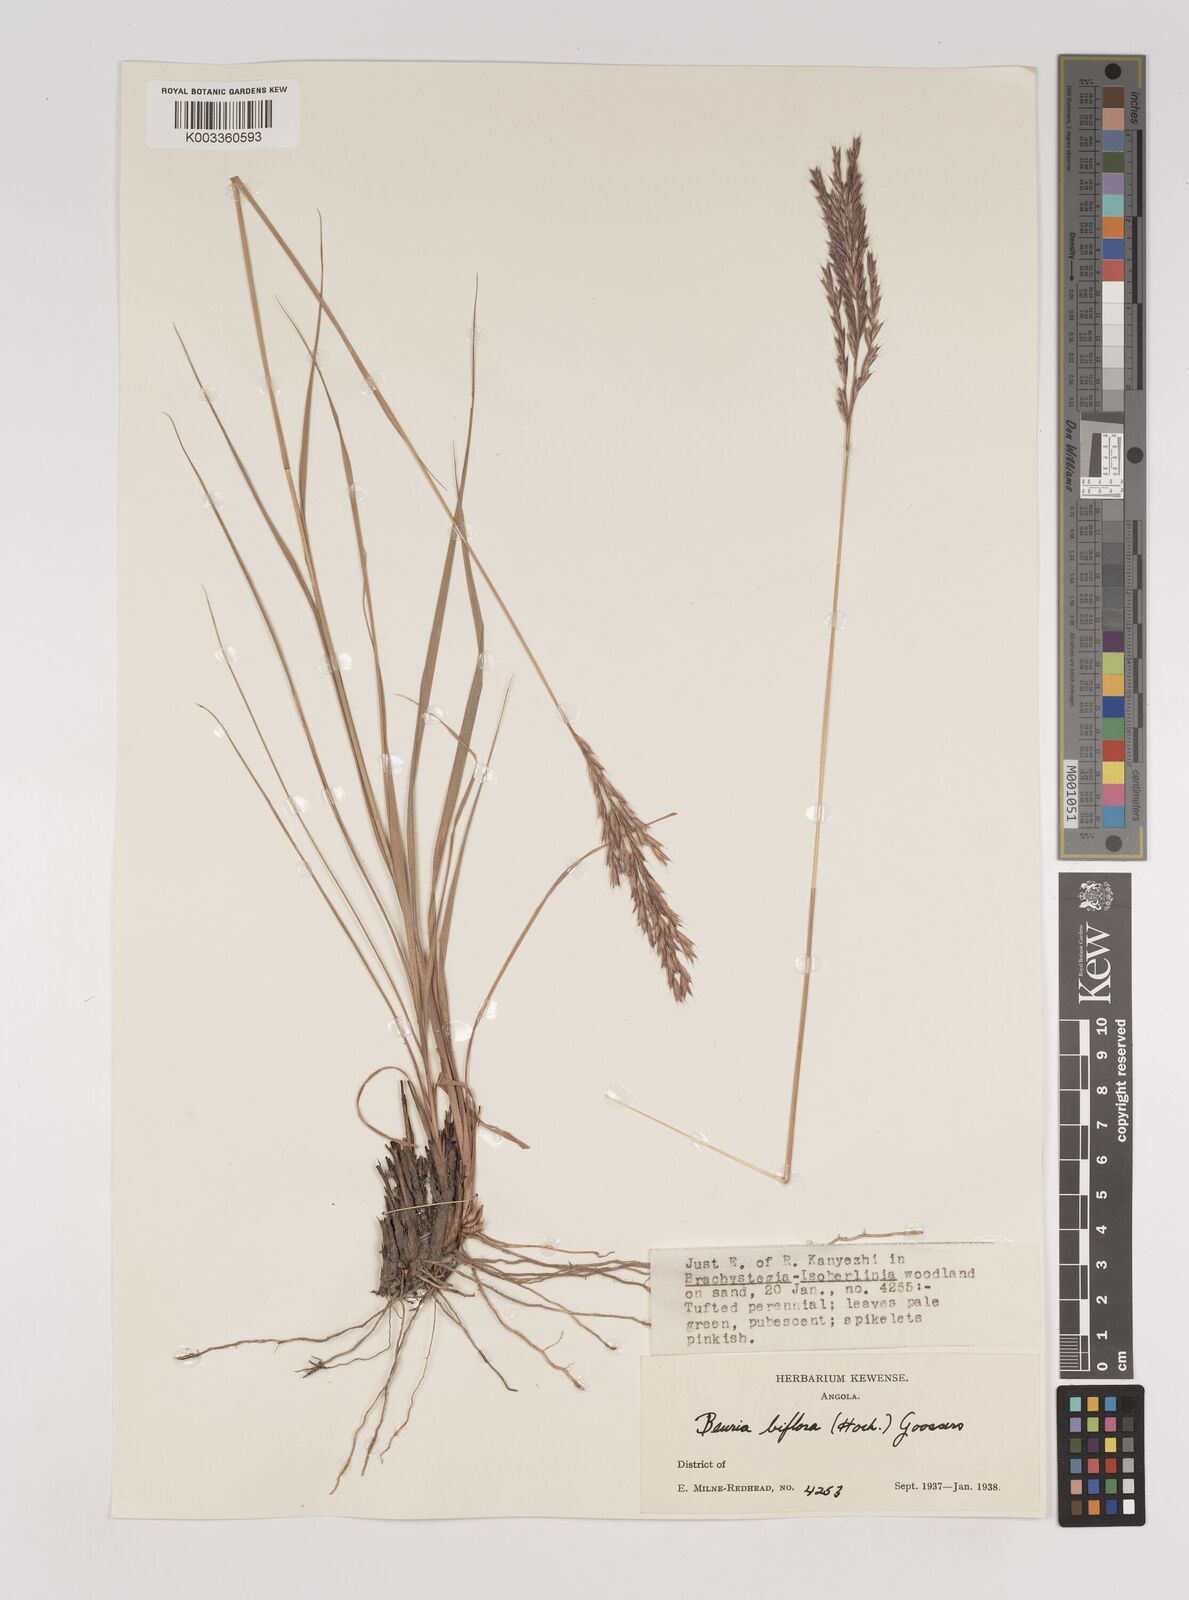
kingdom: Plantae
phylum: Tracheophyta
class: Liliopsida
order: Poales
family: Poaceae
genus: Bewsia
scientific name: Bewsia biflora
